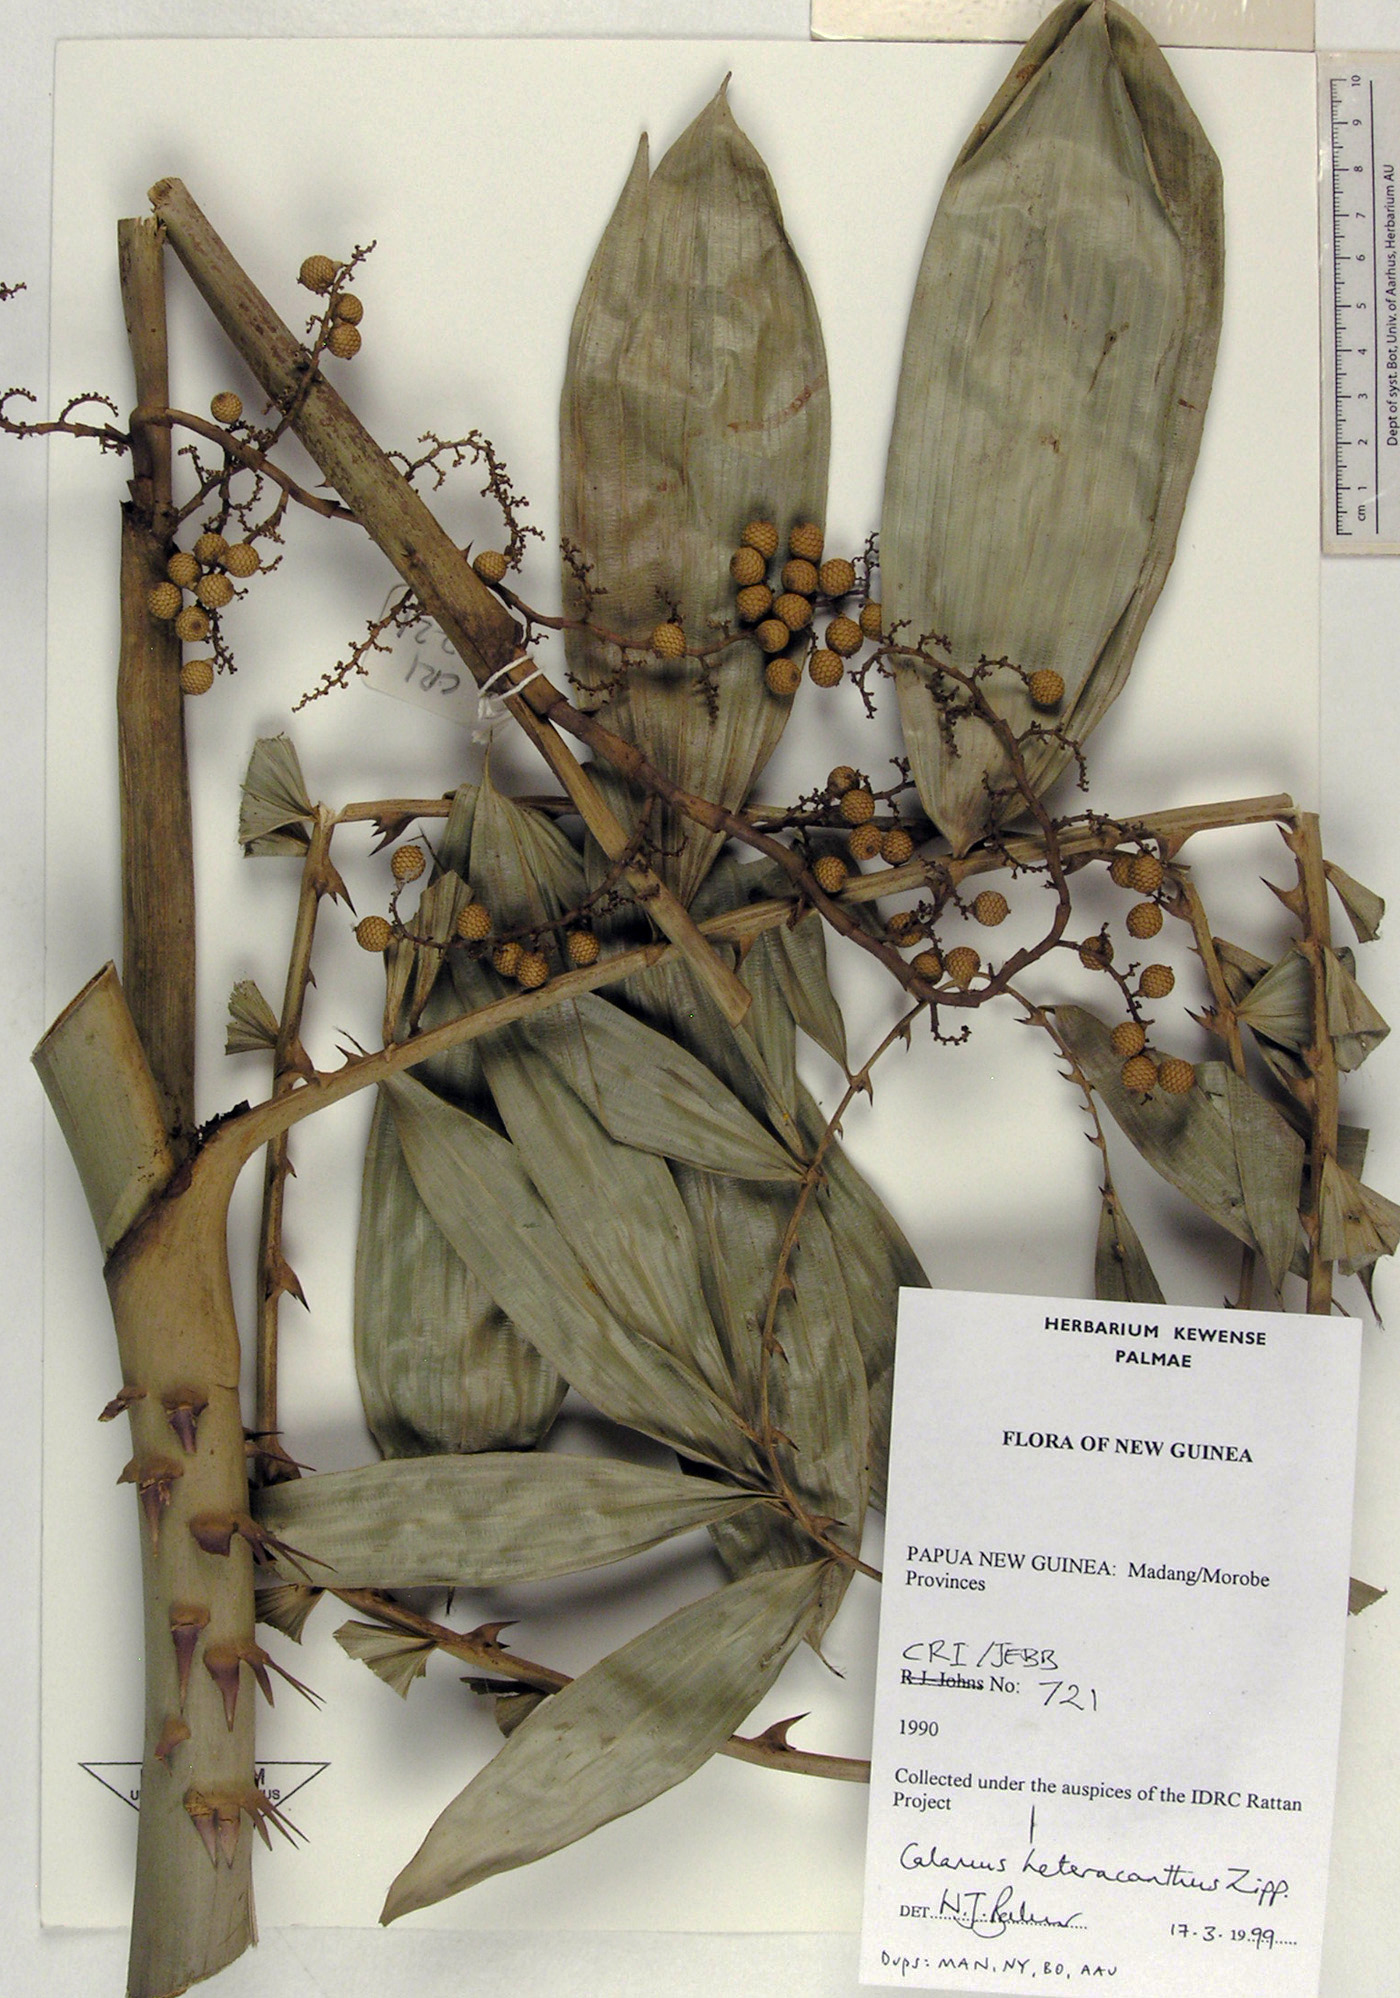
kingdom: Plantae
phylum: Tracheophyta
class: Liliopsida
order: Arecales
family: Arecaceae
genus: Calamus
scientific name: Calamus heteracanthus
